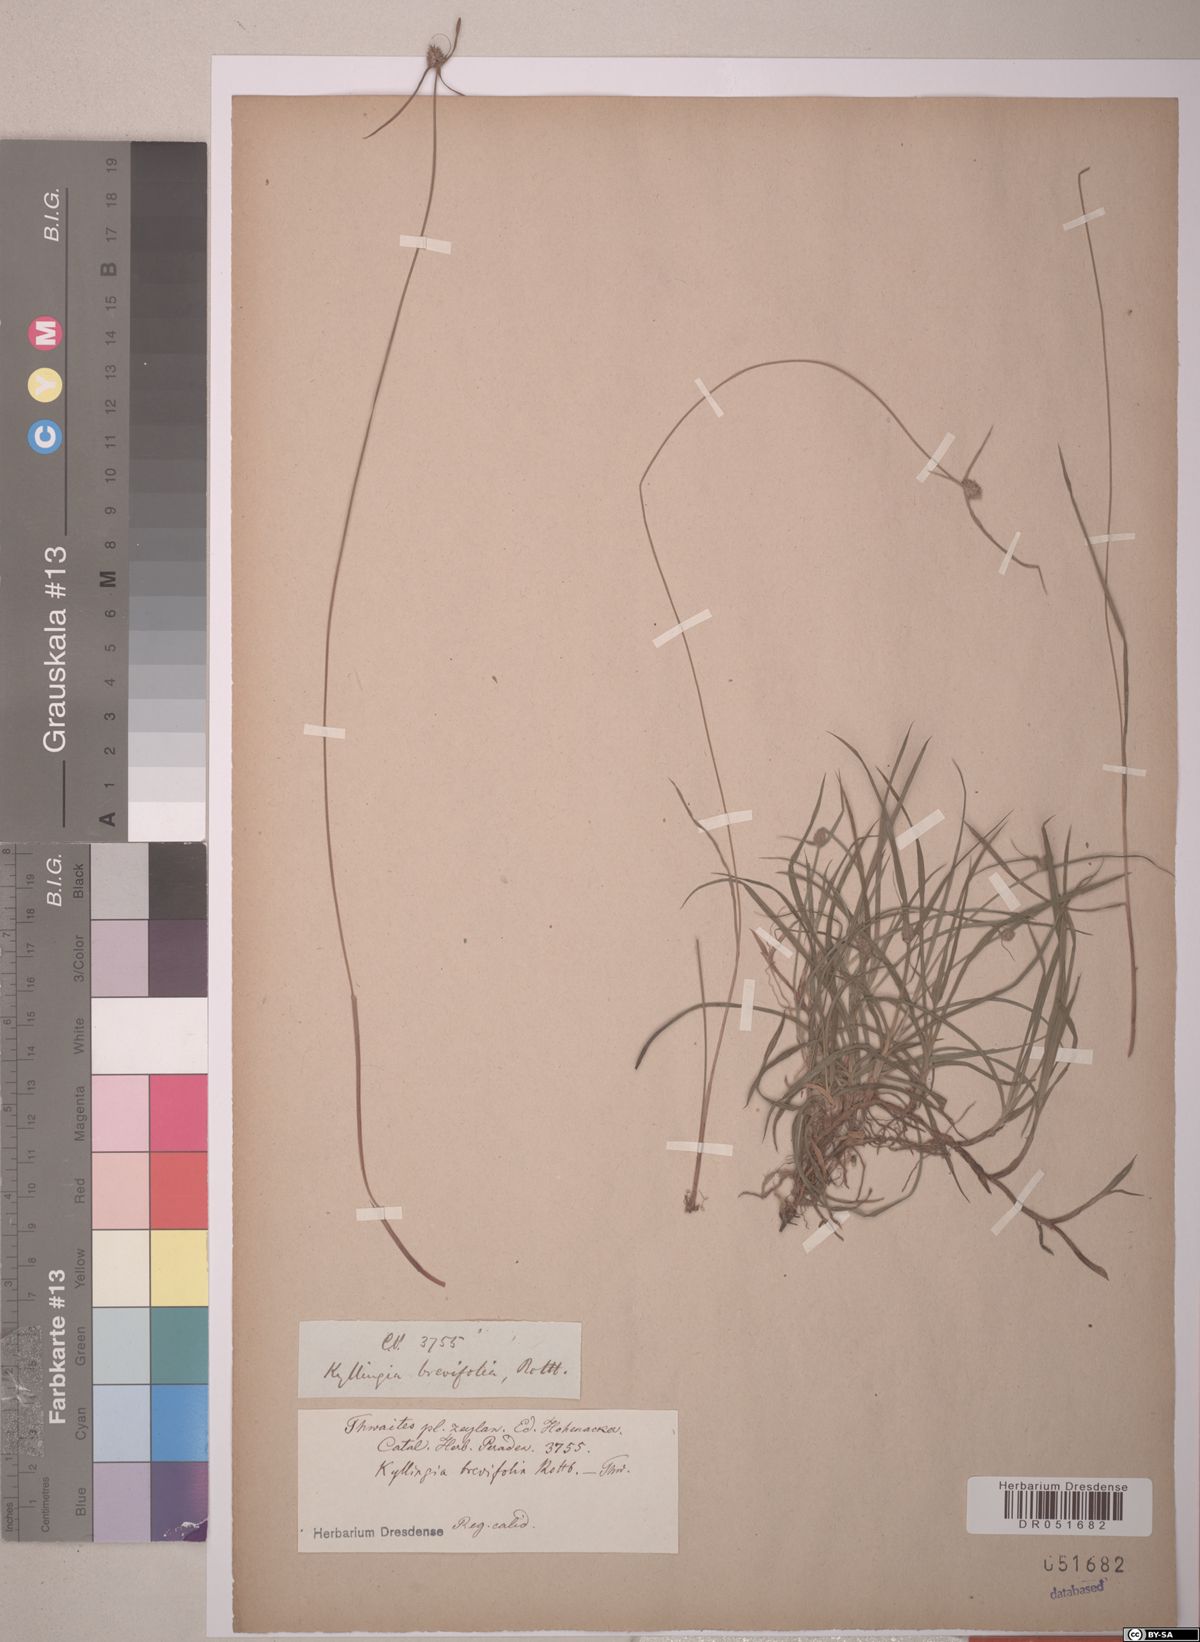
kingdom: Plantae
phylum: Tracheophyta
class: Liliopsida
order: Poales
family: Cyperaceae
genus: Cyperus
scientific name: Cyperus brevifolius
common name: Globe kyllinga
